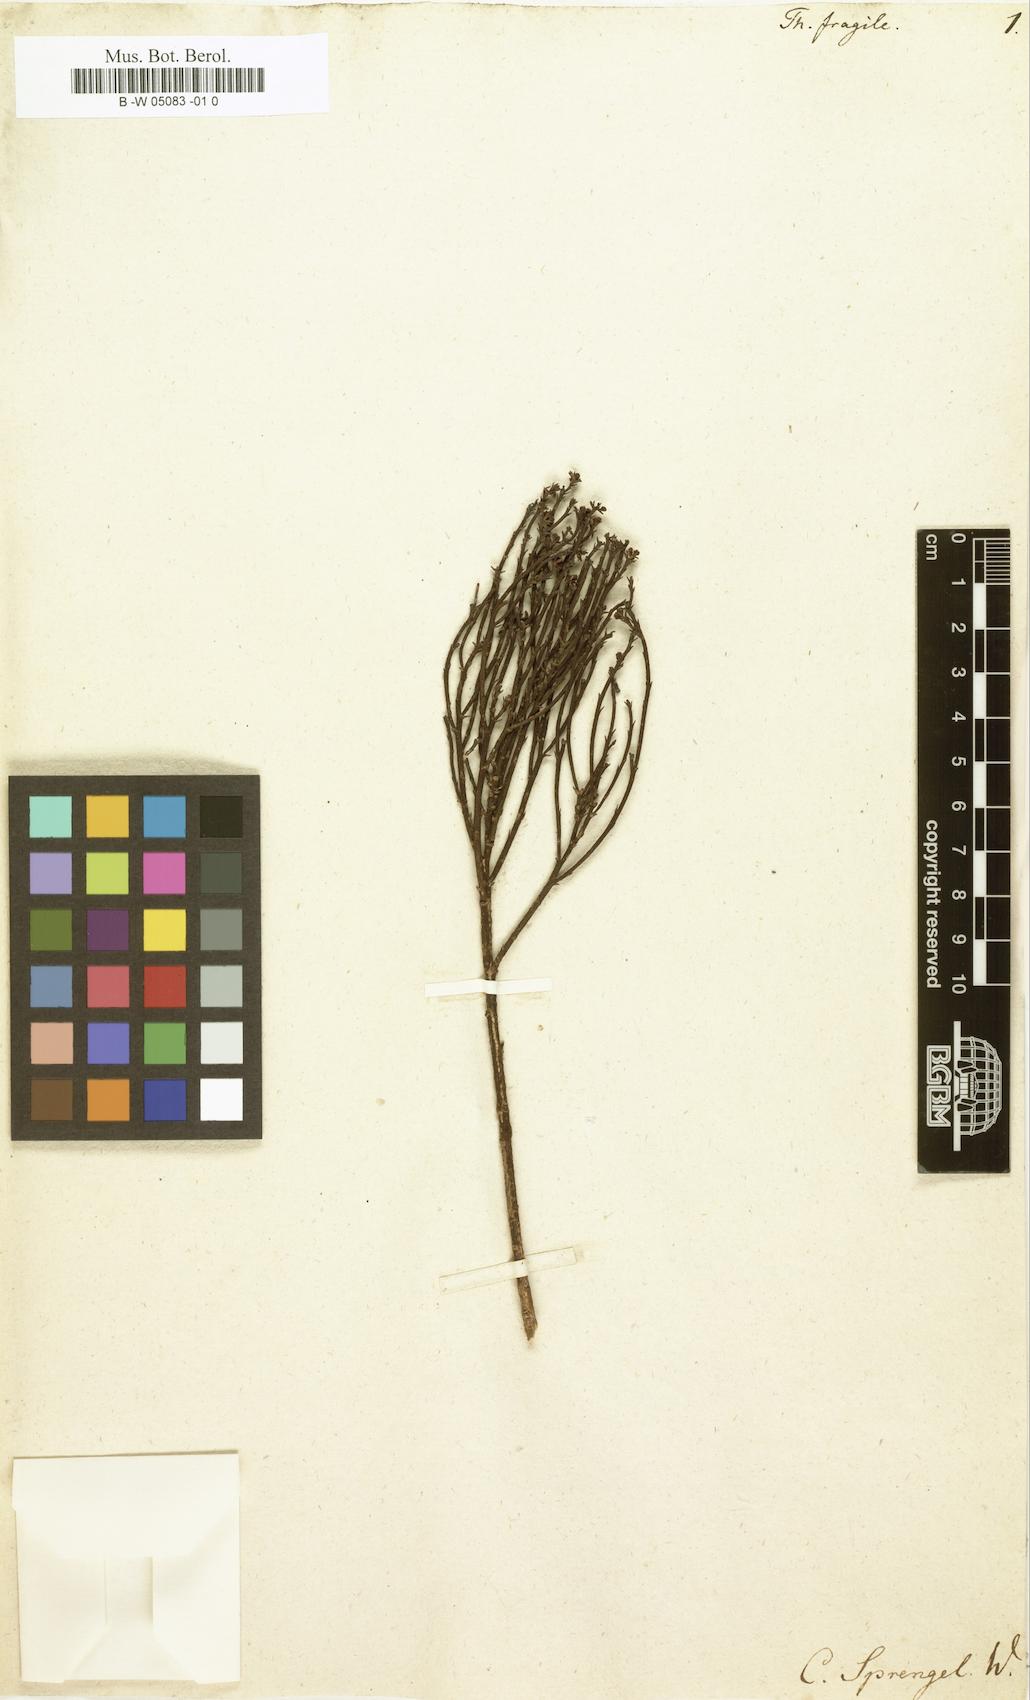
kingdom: Plantae
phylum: Tracheophyta
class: Magnoliopsida
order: Santalales
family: Thesiaceae
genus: Thesium
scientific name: Thesium fragile
